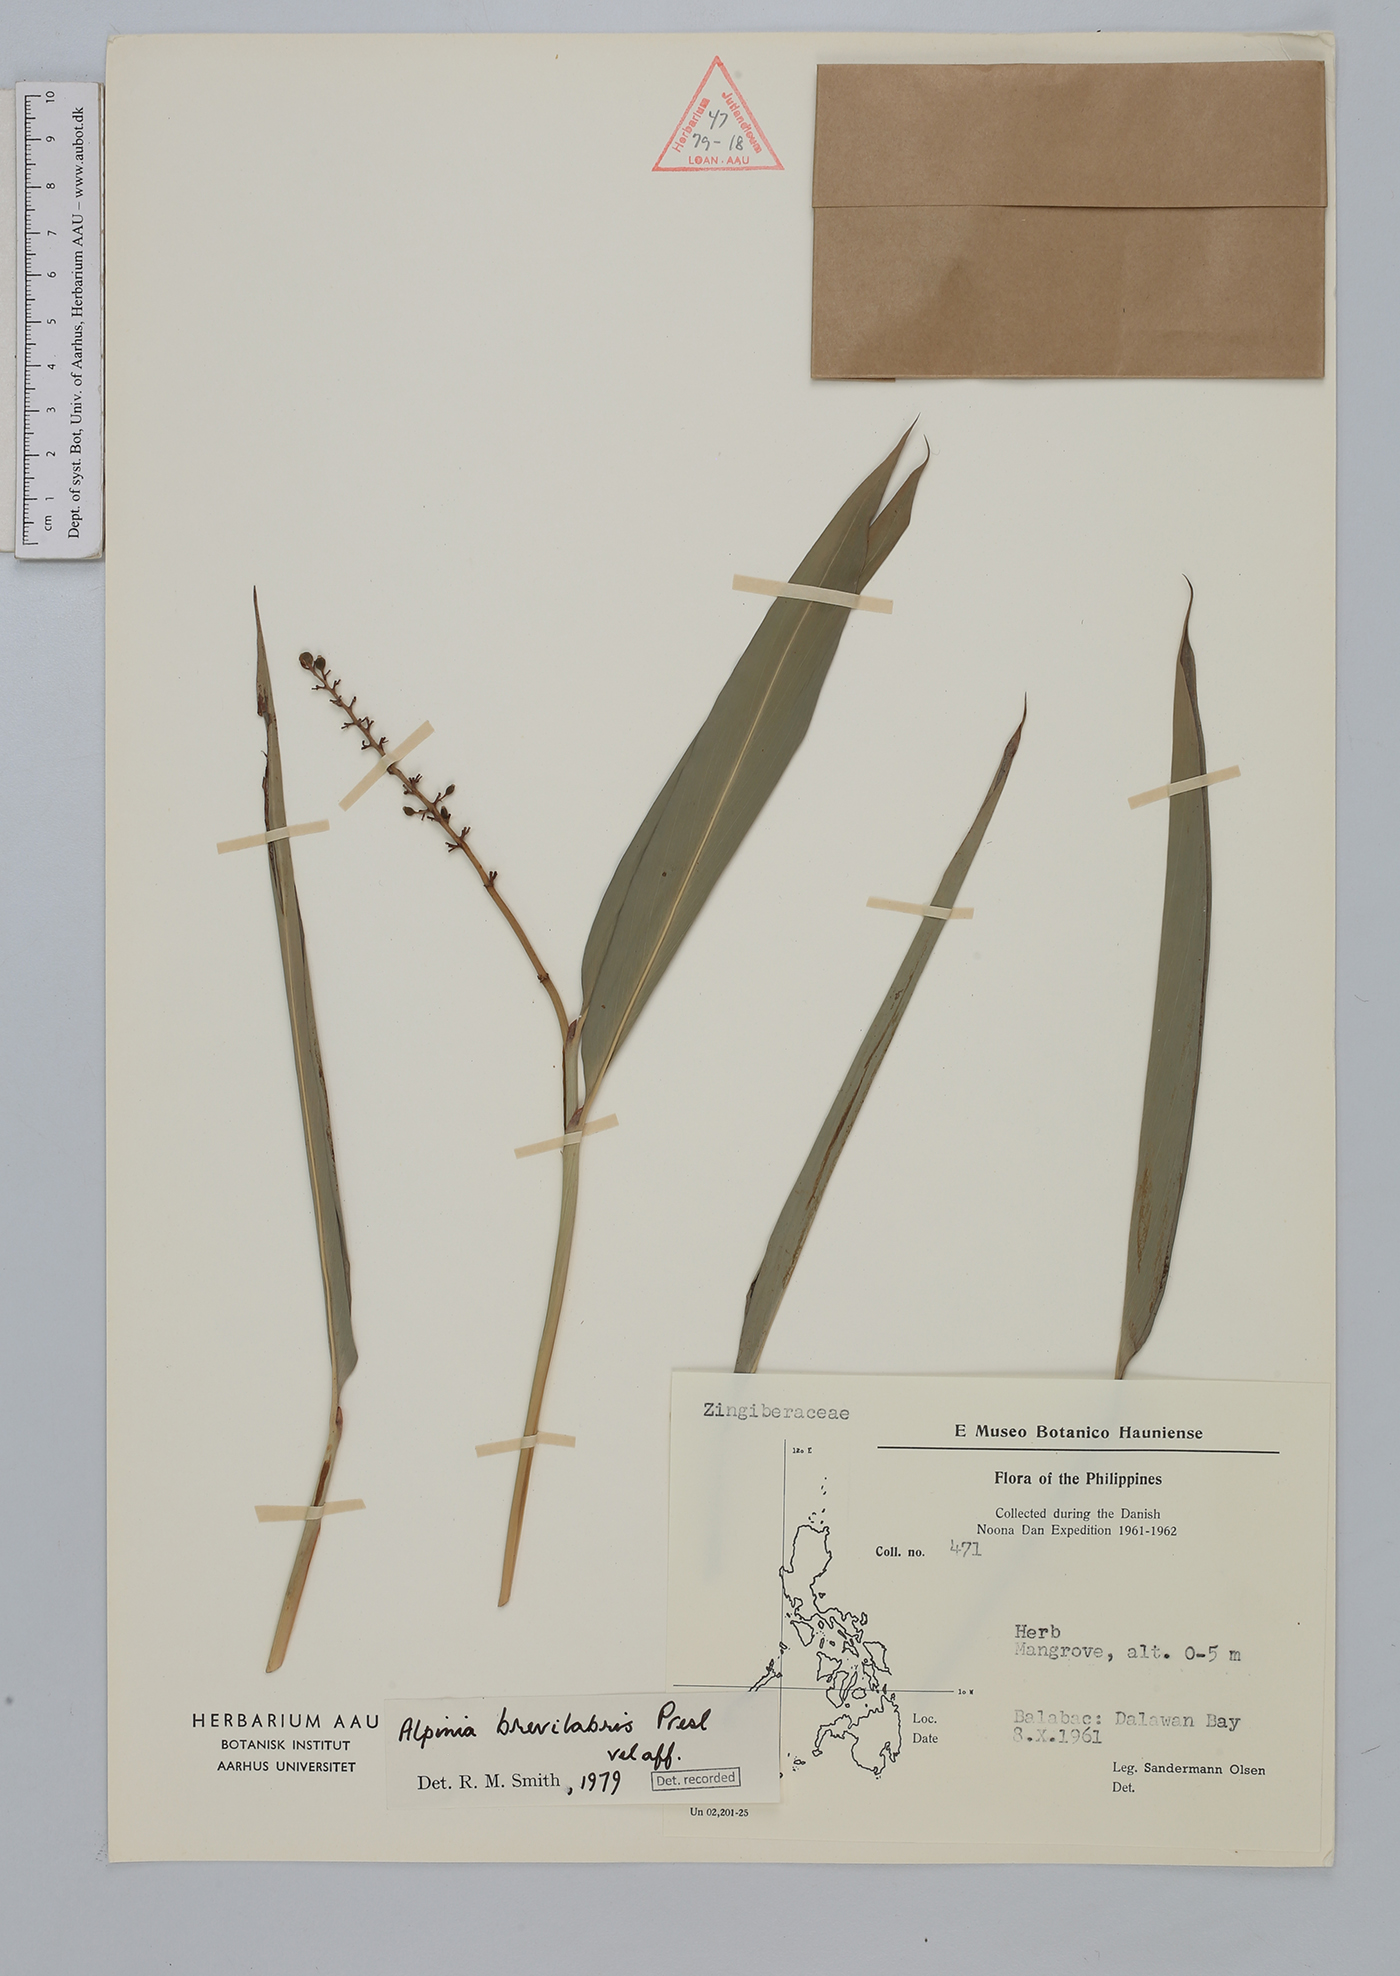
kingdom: Plantae
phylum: Tracheophyta
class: Liliopsida
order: Zingiberales
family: Zingiberaceae
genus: Alpinia
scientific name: Alpinia brevilabris
